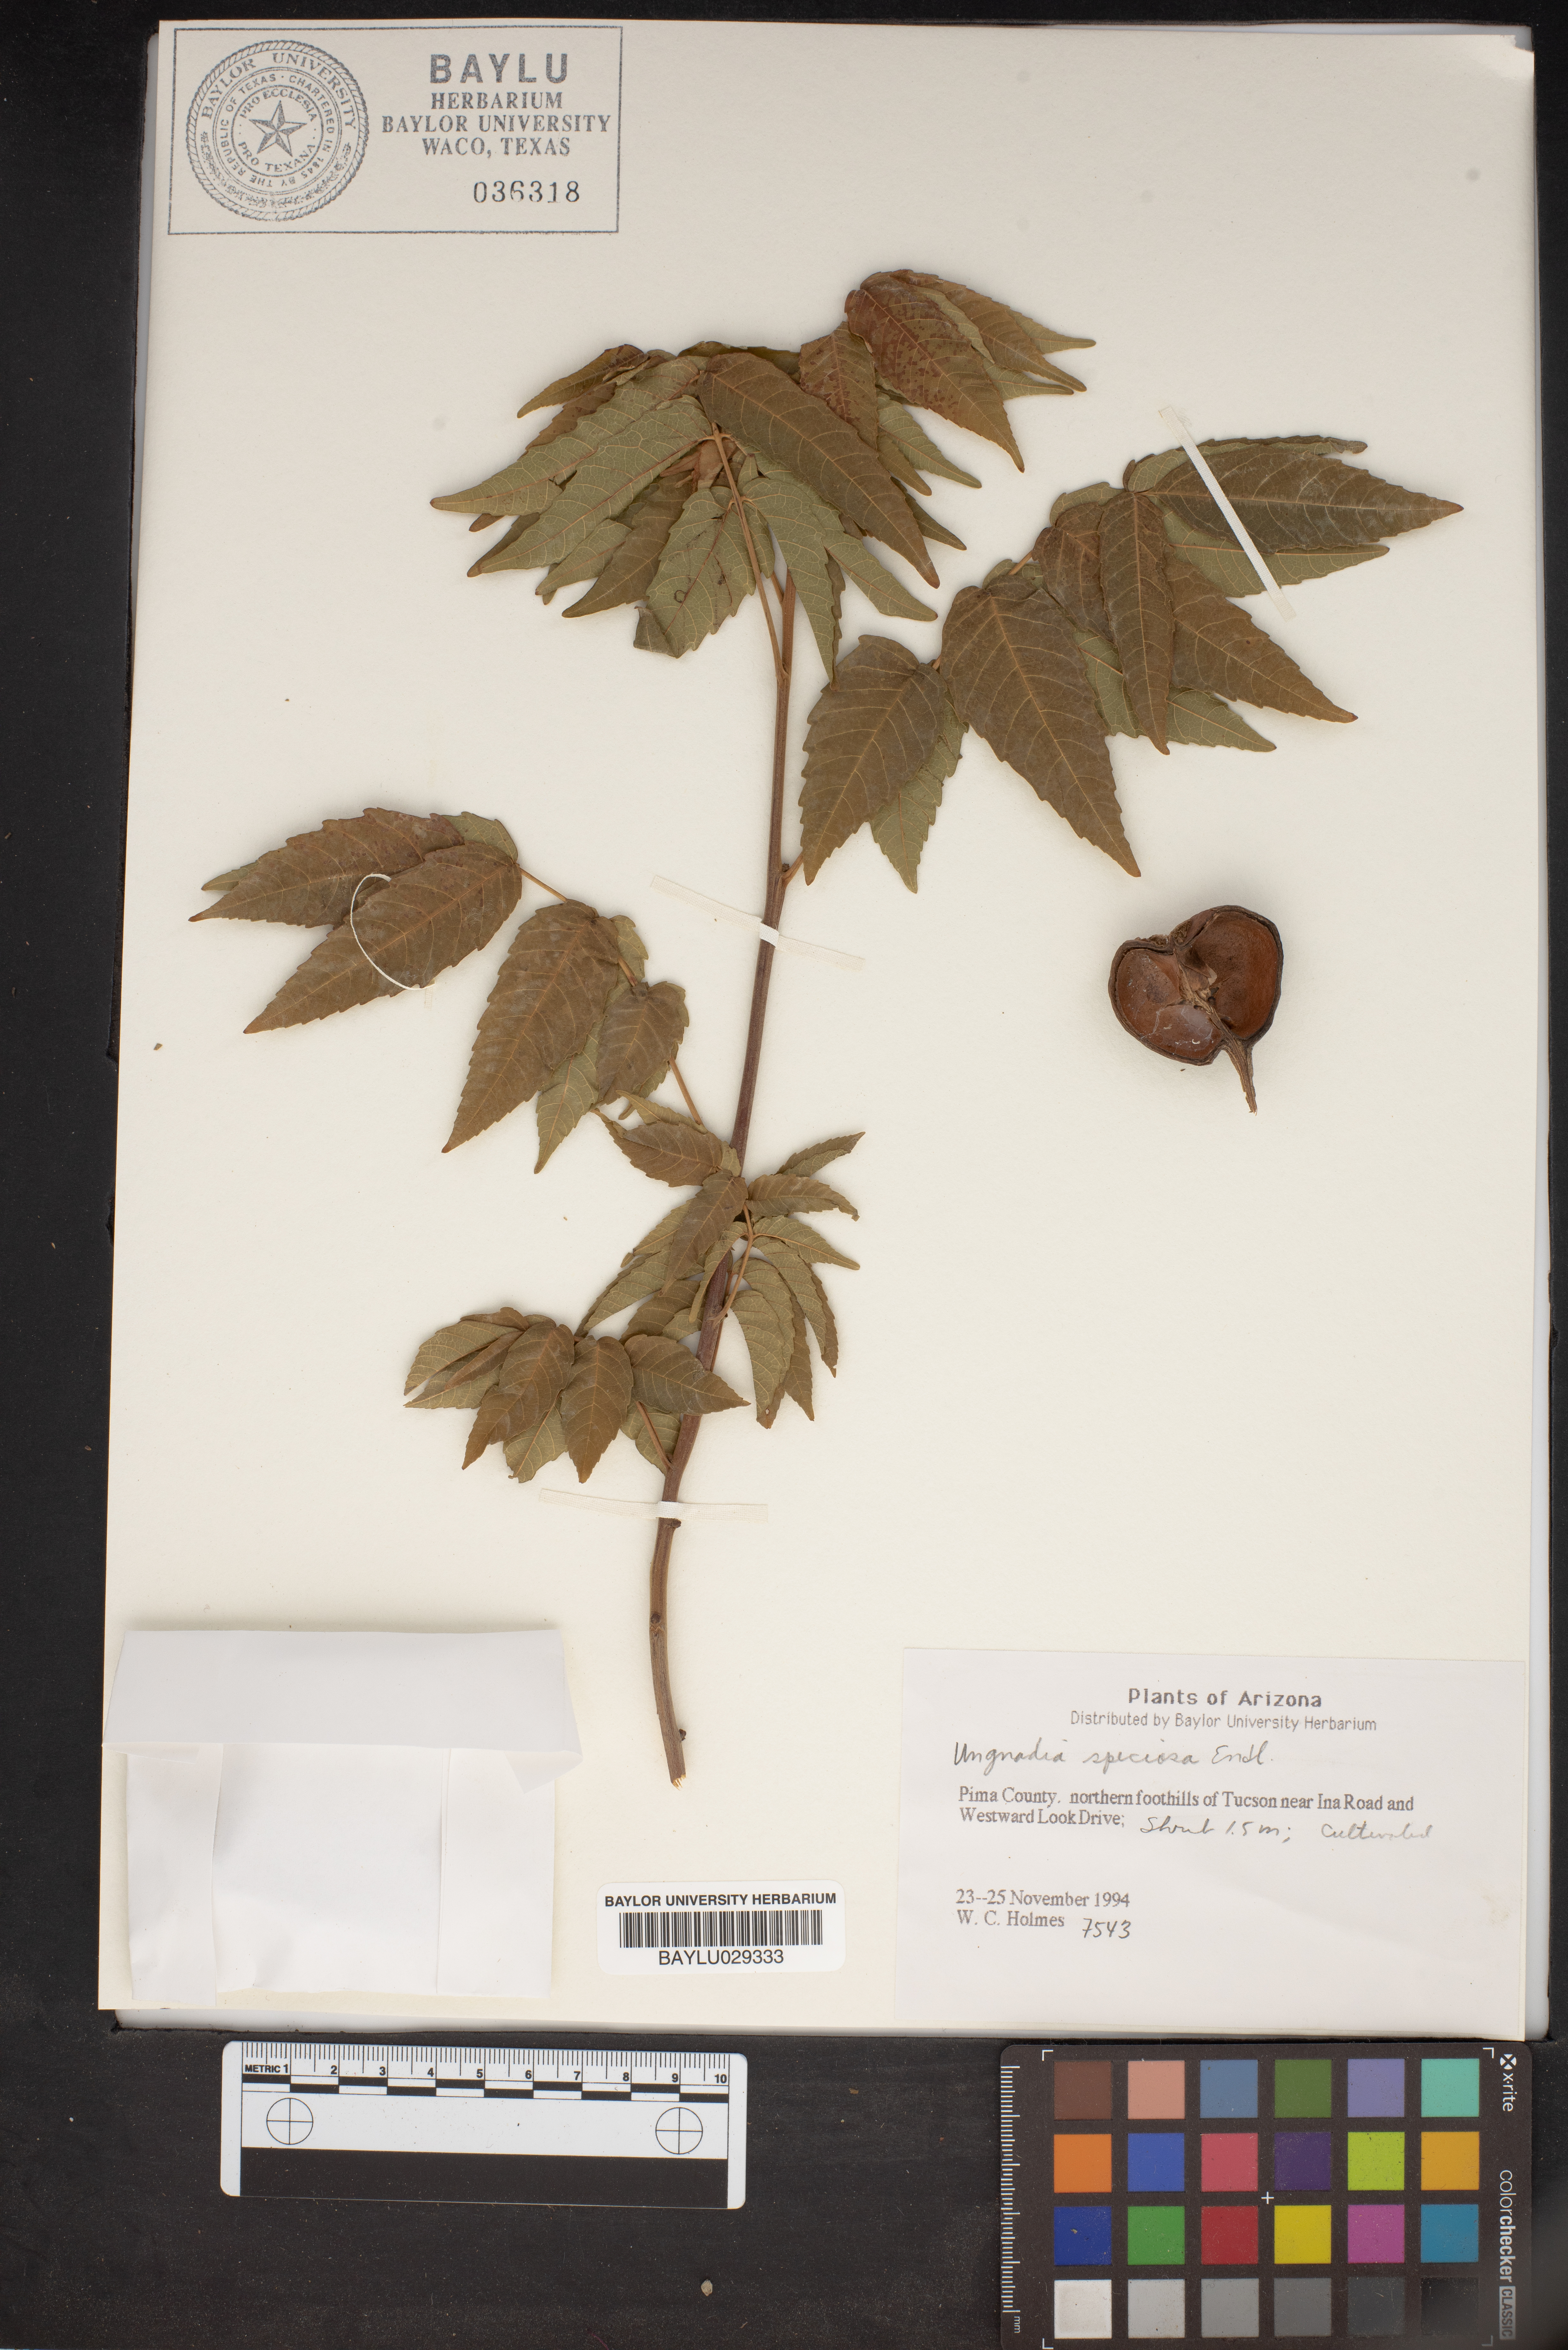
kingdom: Plantae
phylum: Tracheophyta
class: Magnoliopsida
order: Sapindales
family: Sapindaceae
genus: Ungnadia
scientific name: Ungnadia speciosa
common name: Texas-buckeye
